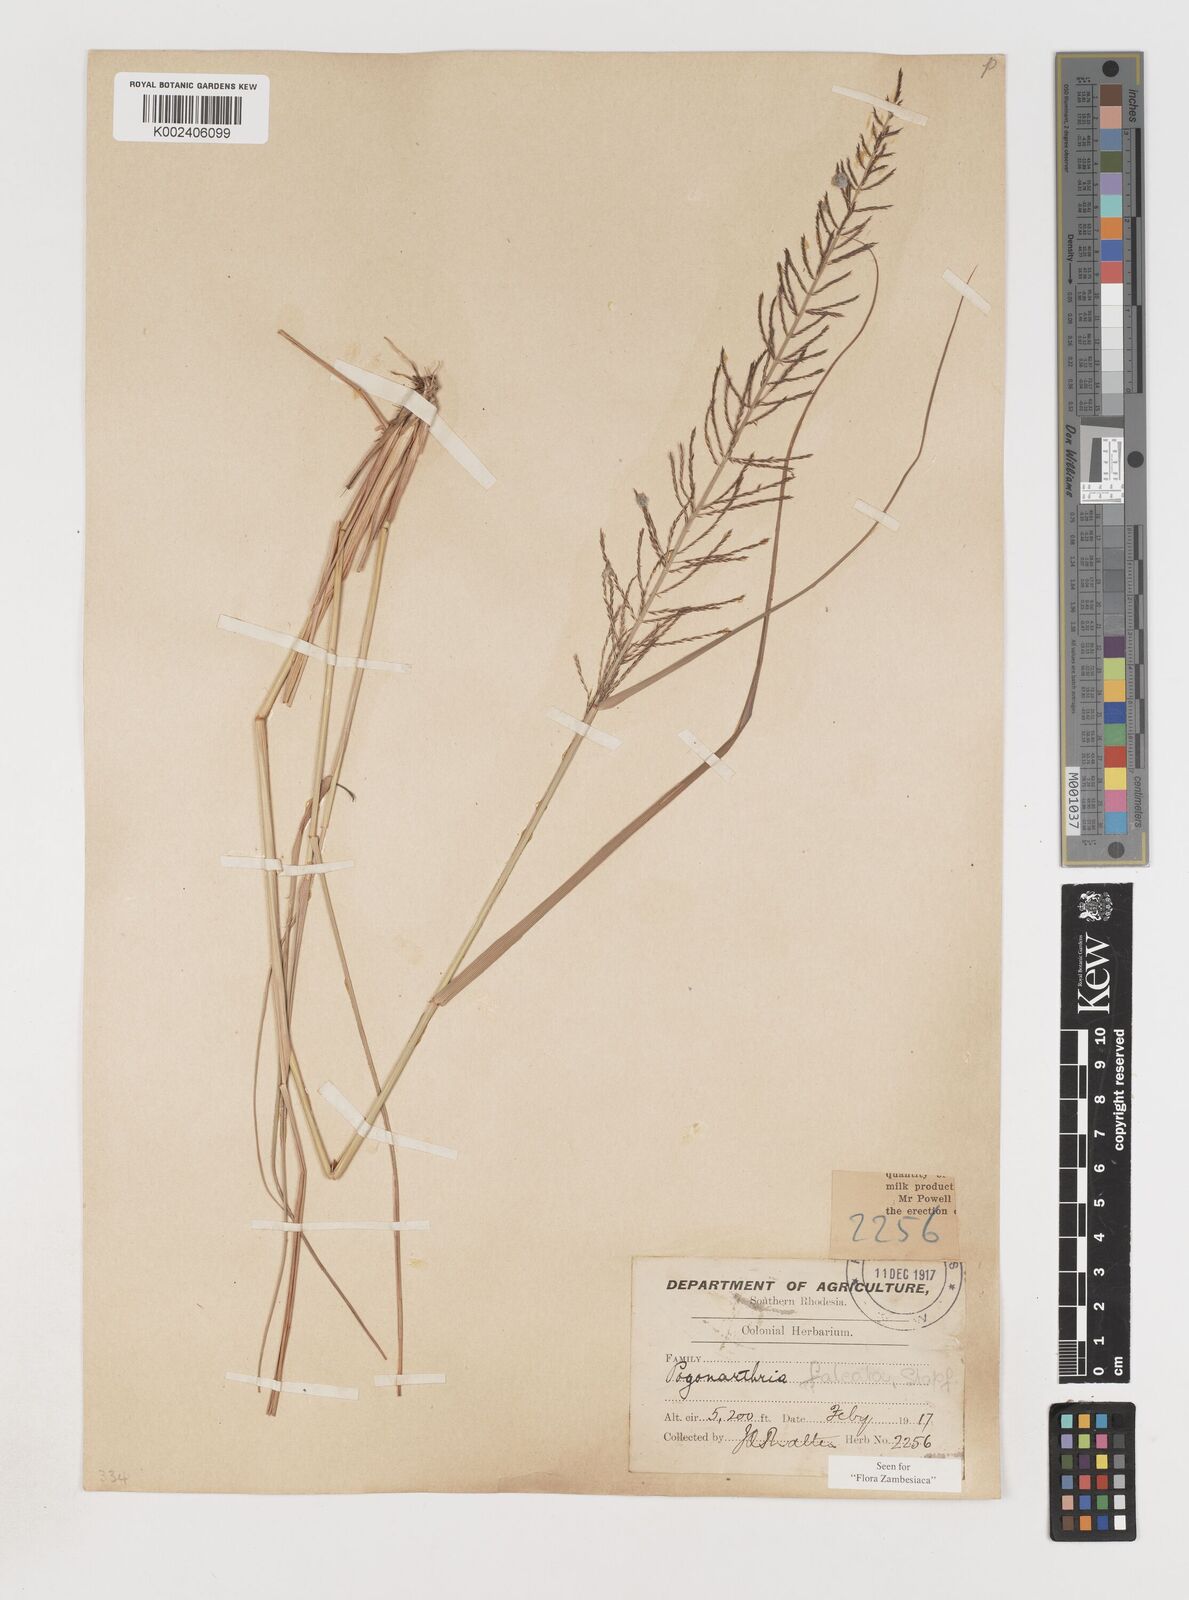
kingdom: Plantae
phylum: Tracheophyta
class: Liliopsida
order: Poales
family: Poaceae
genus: Pogonarthria
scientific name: Pogonarthria squarrosa
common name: Grass
